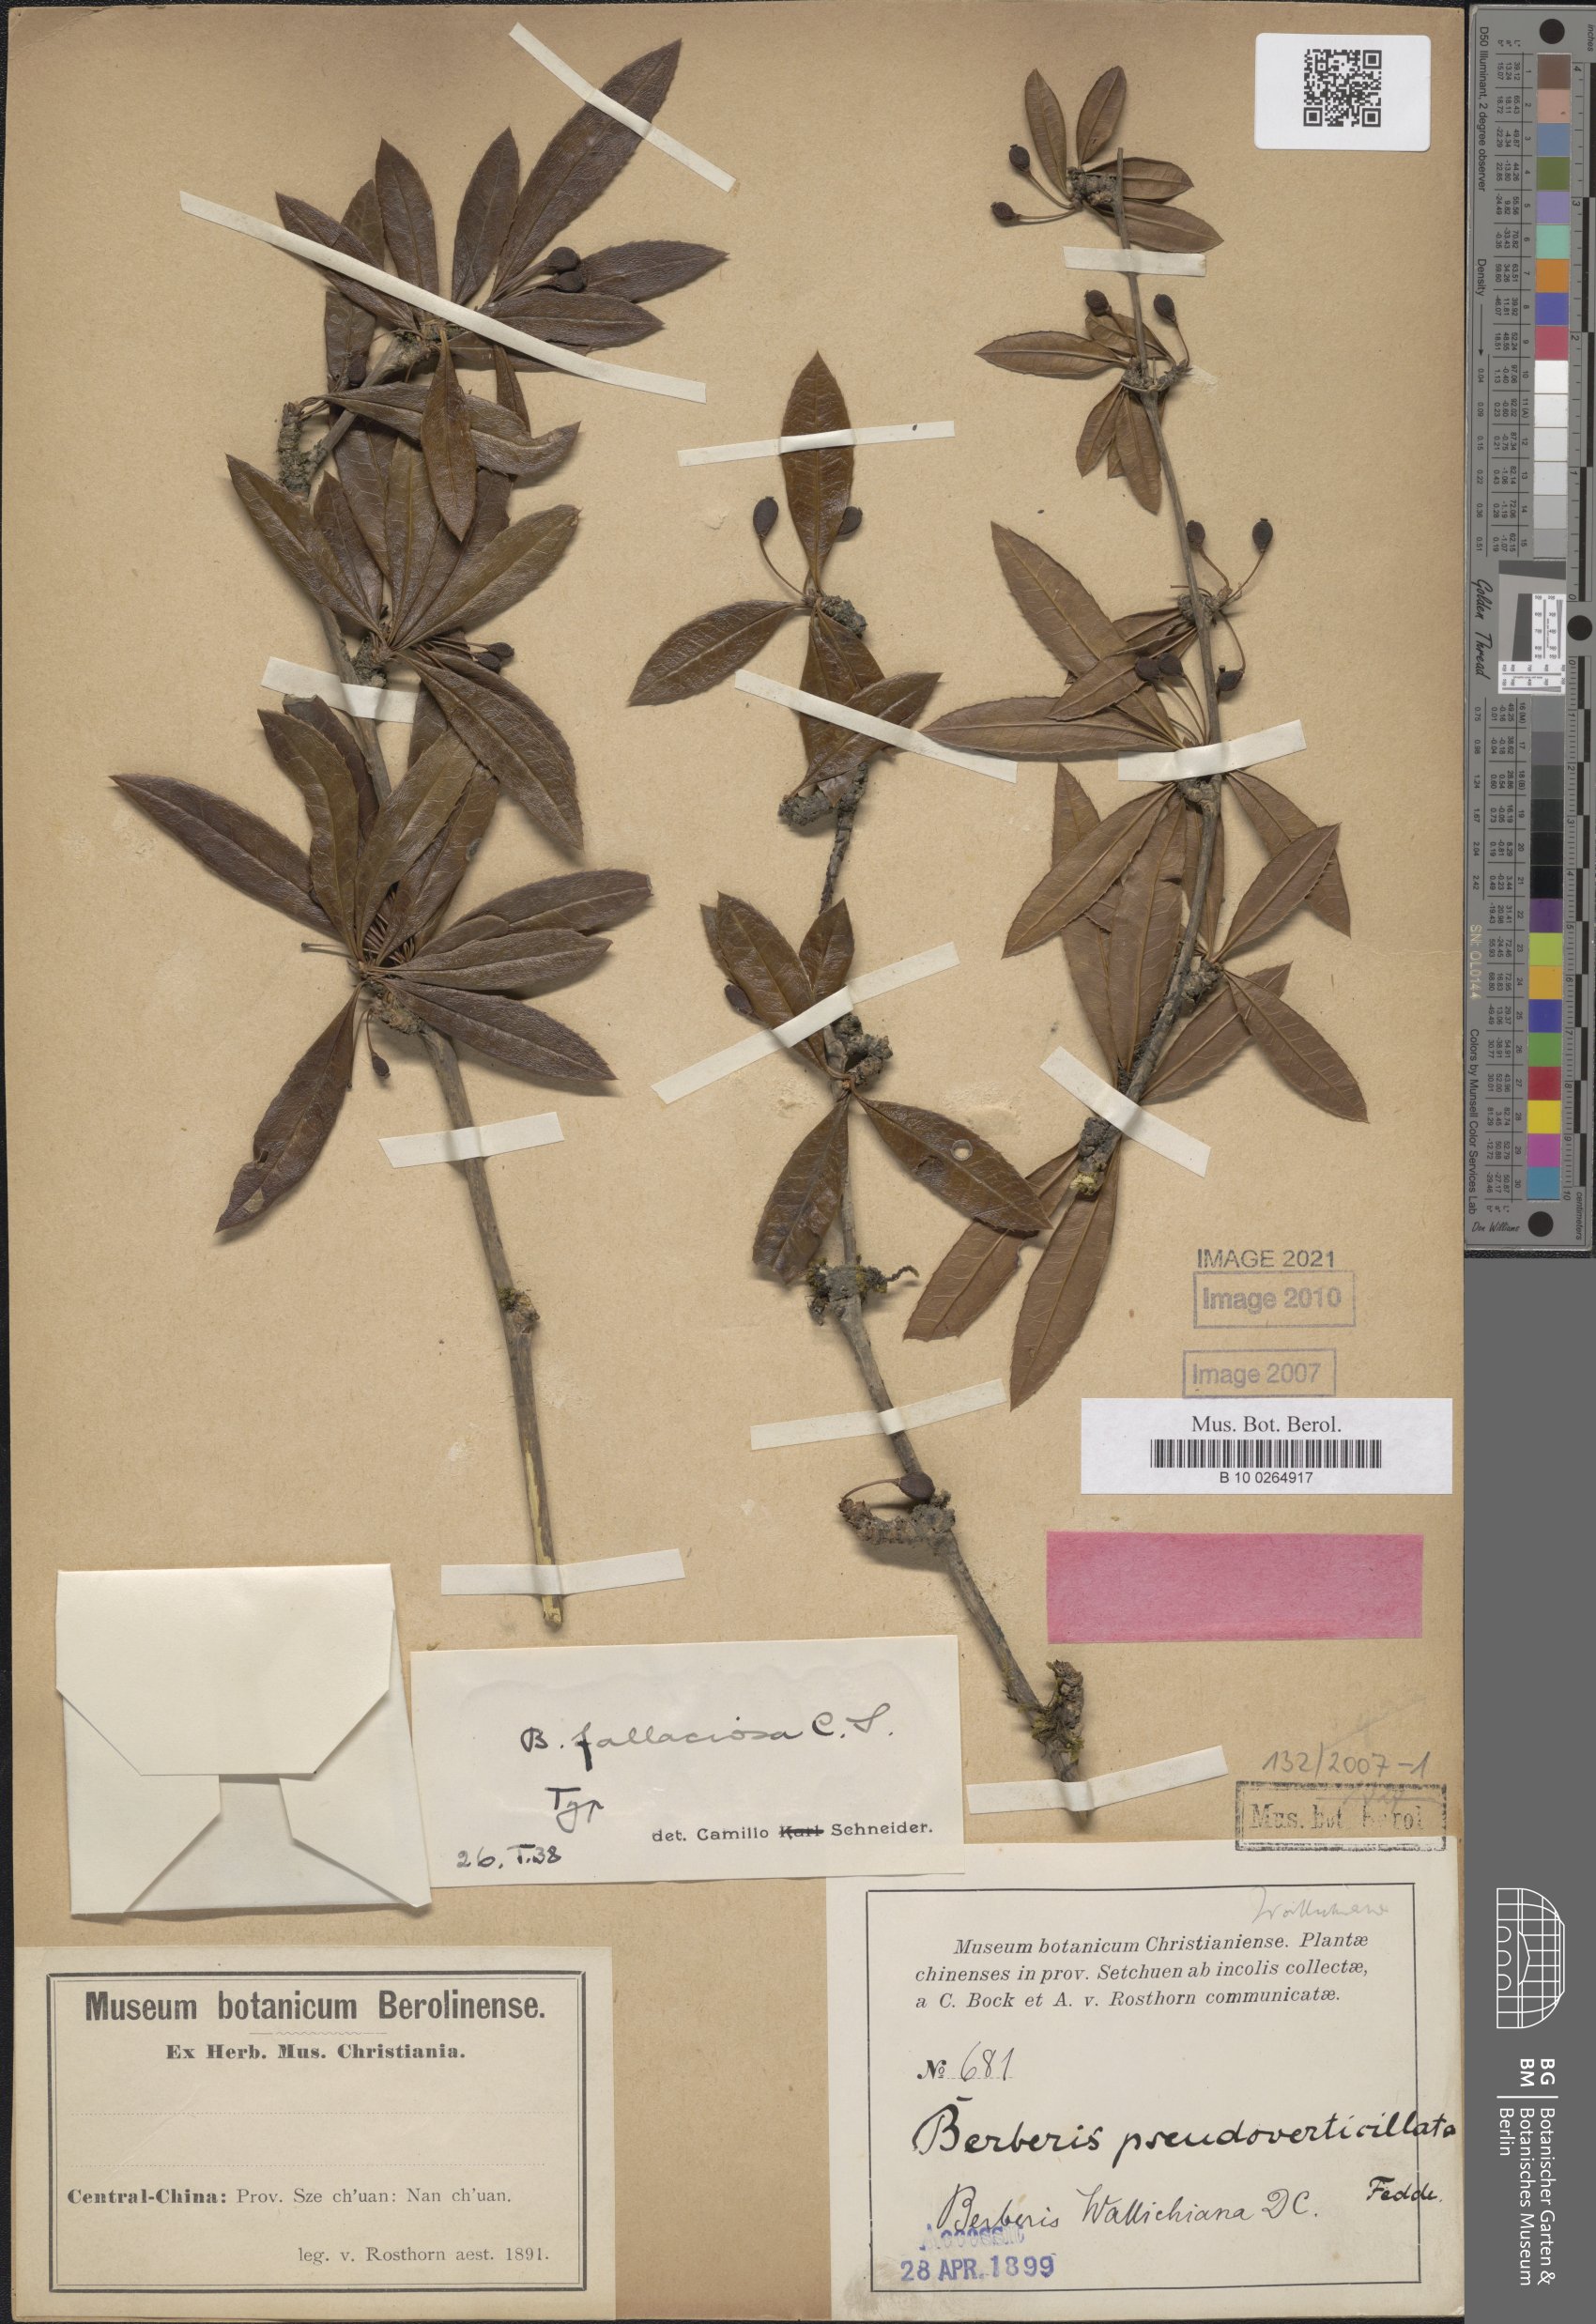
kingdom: Plantae
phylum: Tracheophyta
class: Magnoliopsida
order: Ranunculales
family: Berberidaceae
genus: Berberis
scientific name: Berberis fallaciosa
